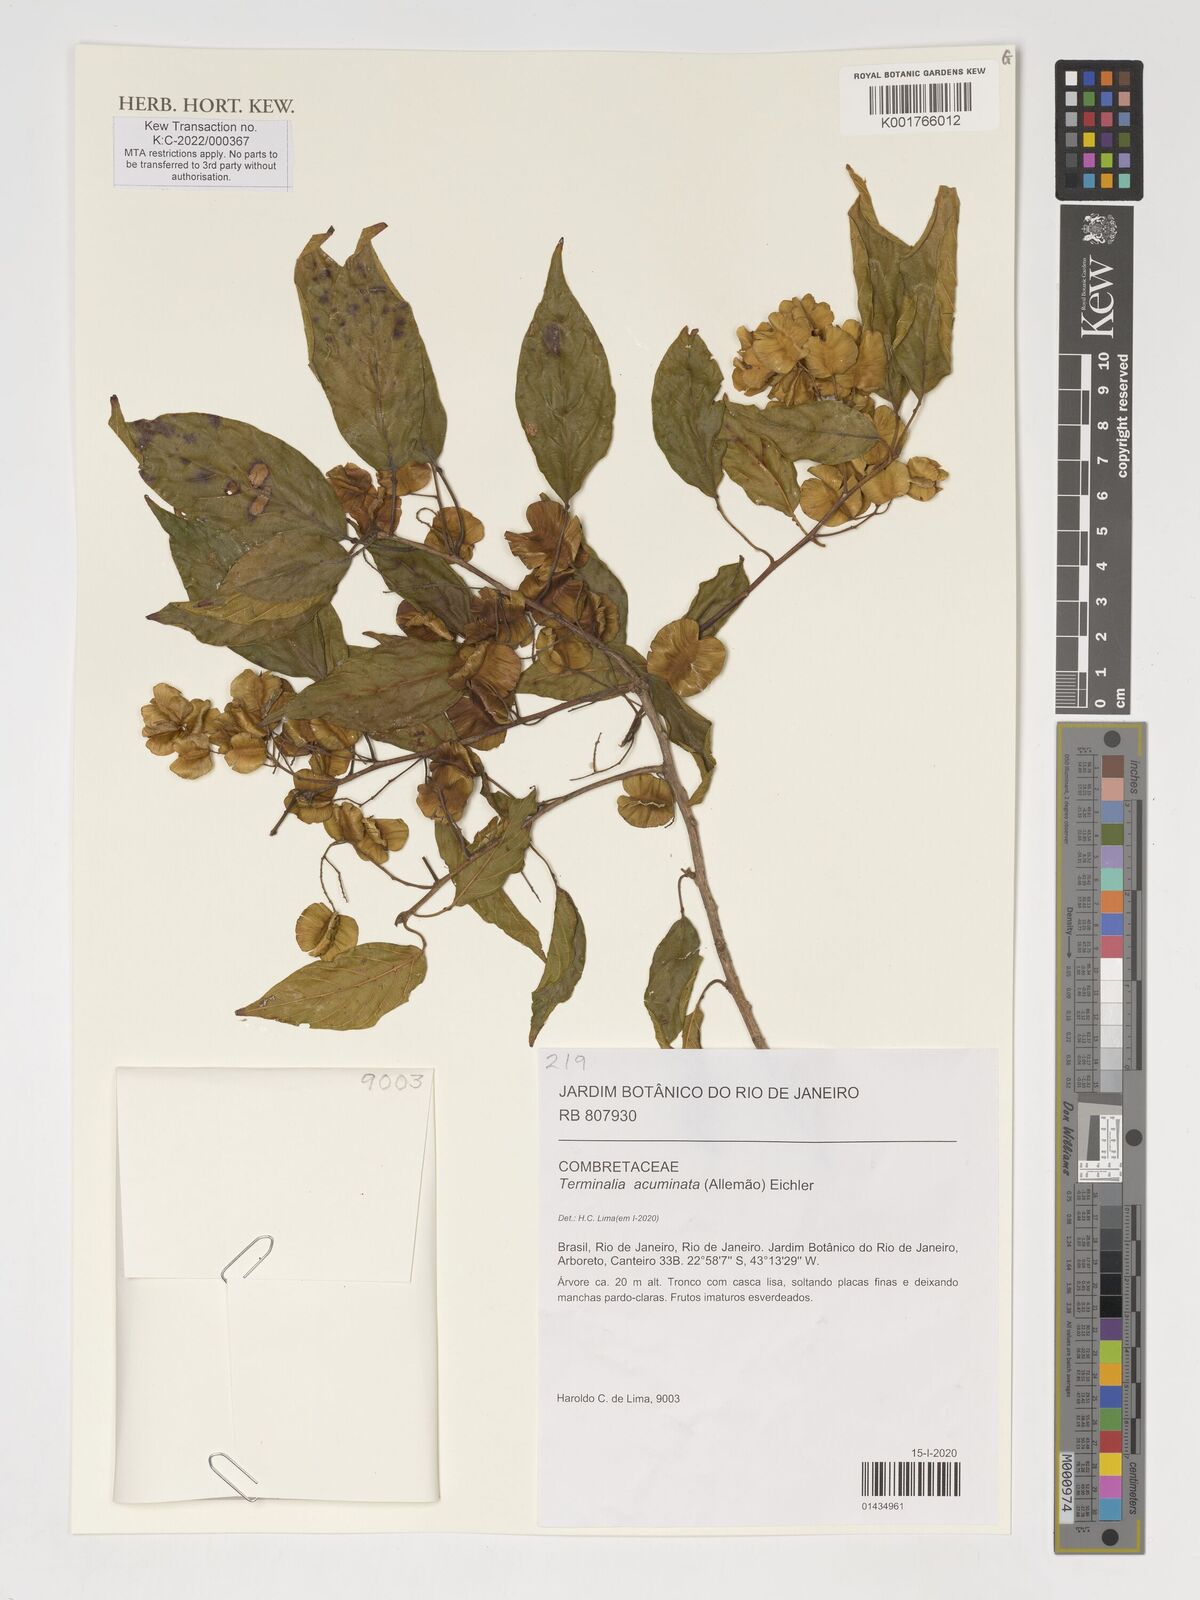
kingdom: Plantae
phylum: Tracheophyta
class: Magnoliopsida
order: Myrtales
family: Combretaceae
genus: Terminalia
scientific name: Terminalia acuminata
